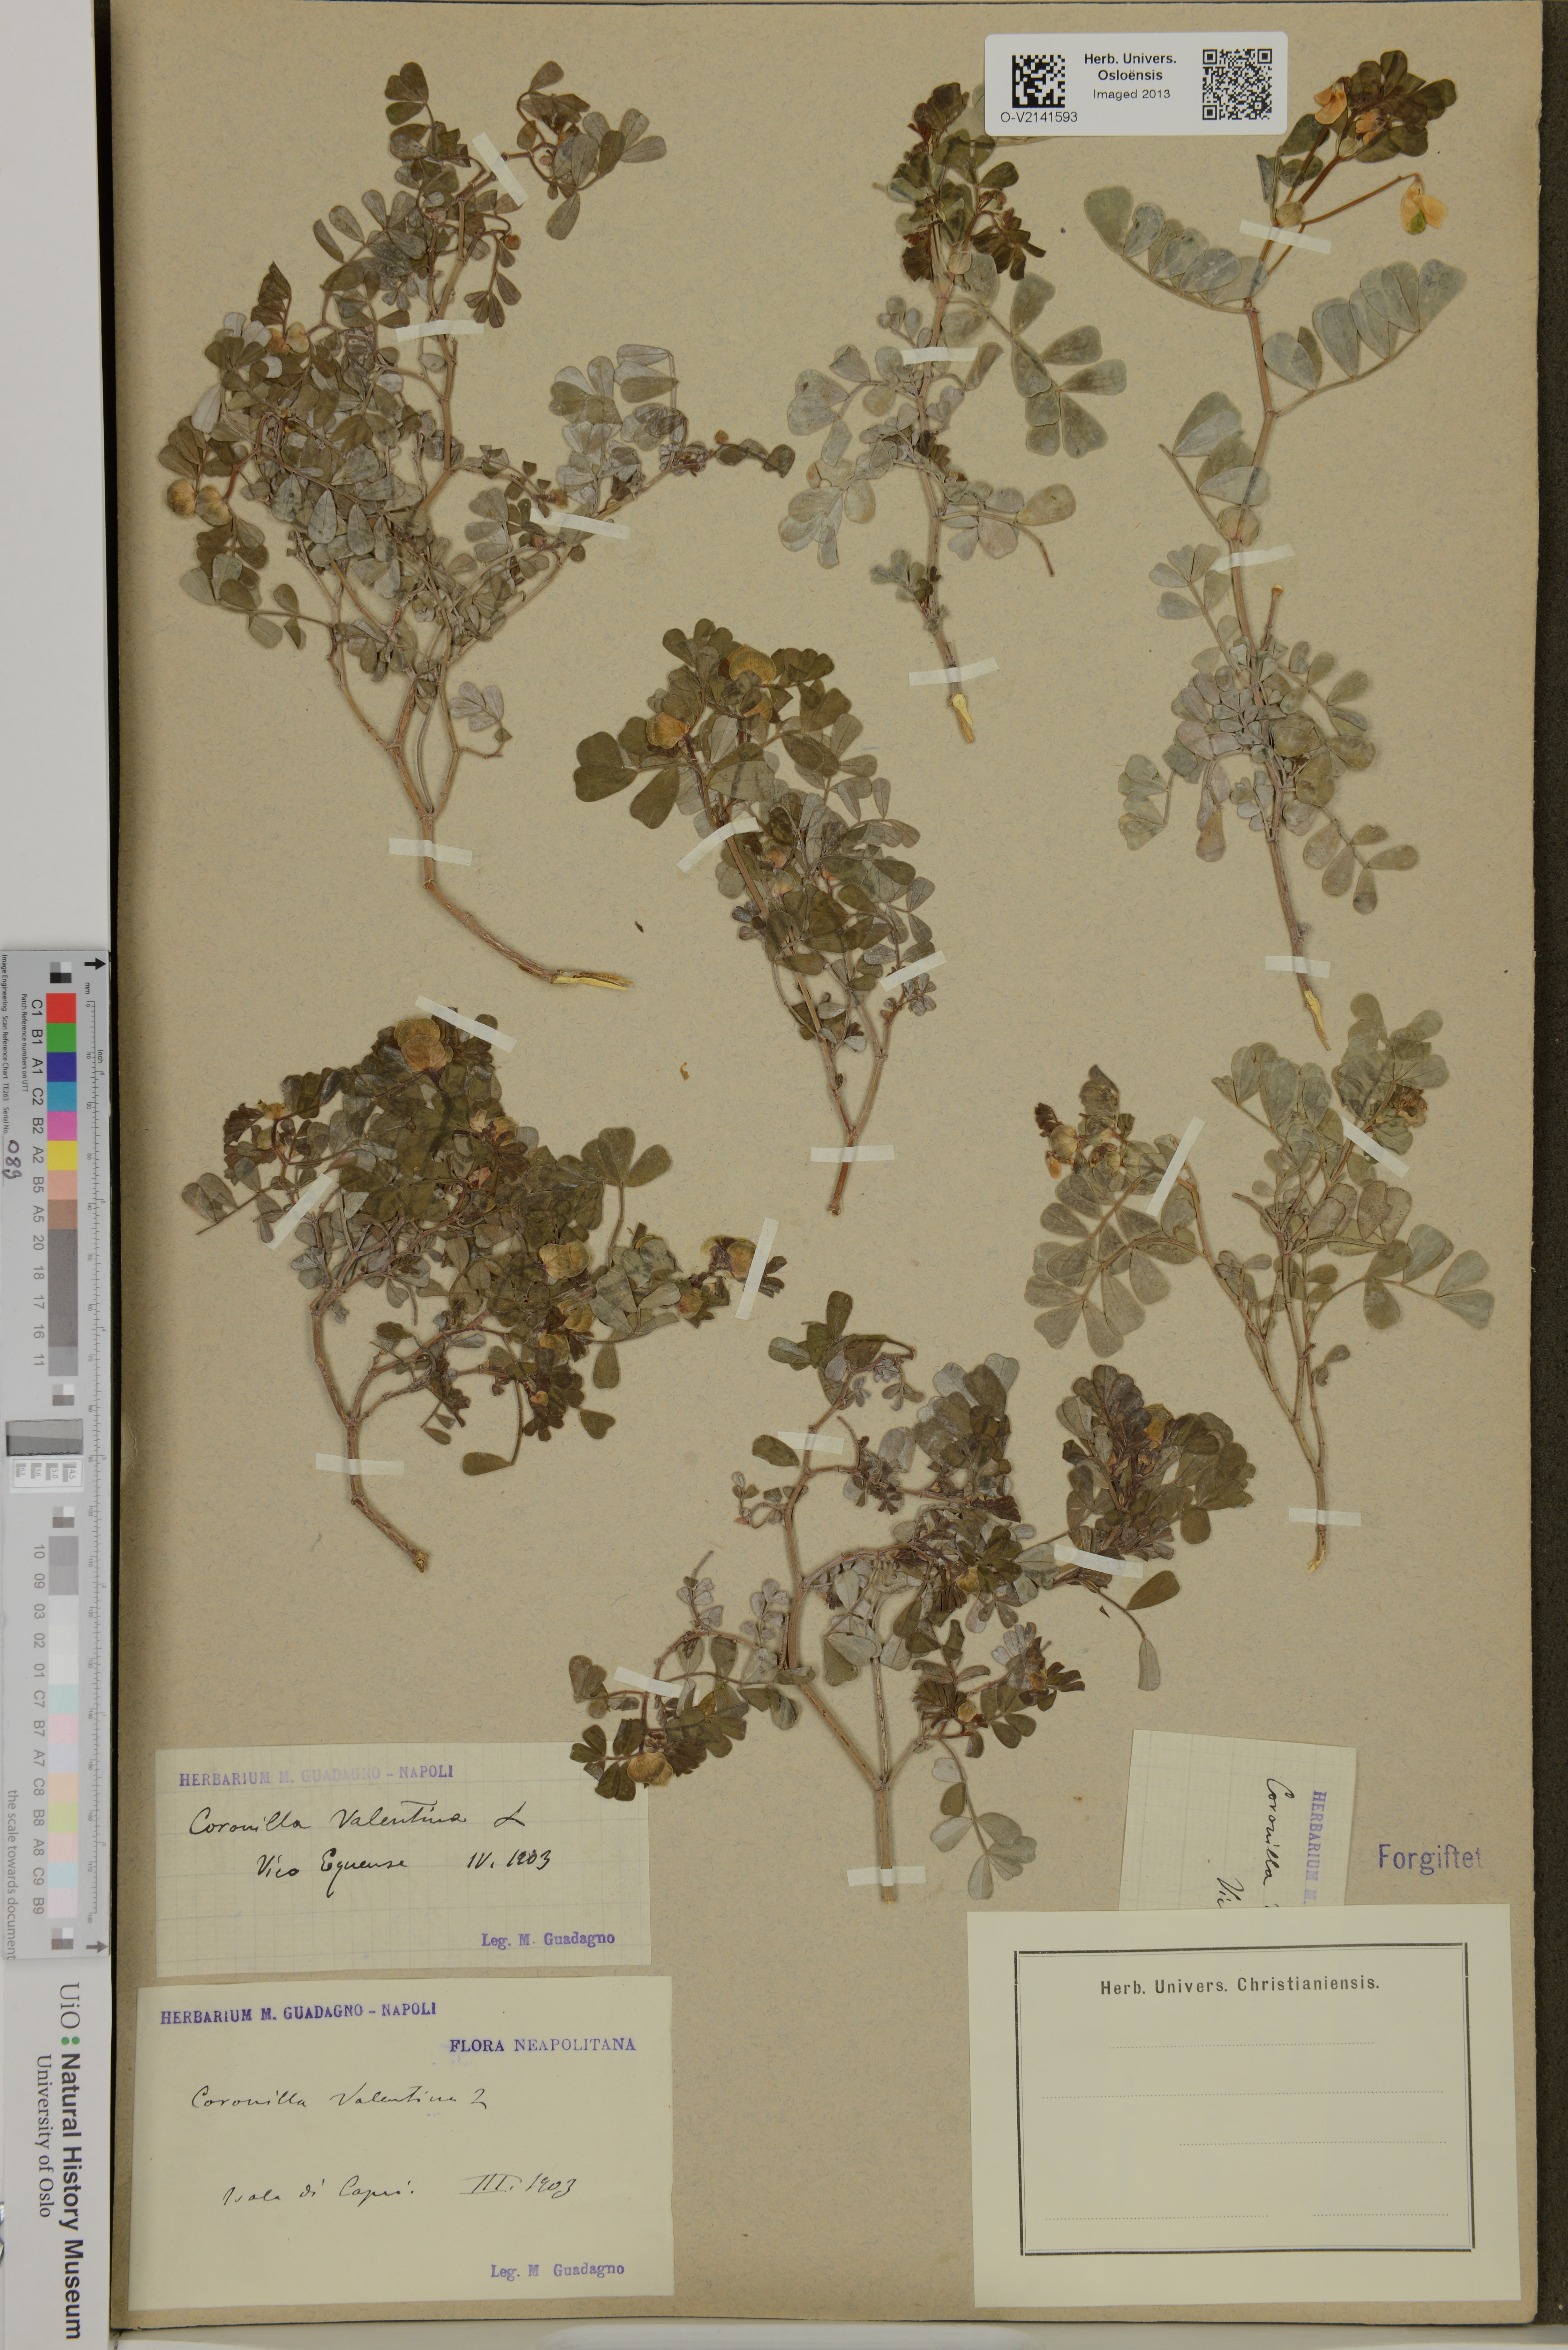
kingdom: Plantae
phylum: Tracheophyta
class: Magnoliopsida
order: Fabales
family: Fabaceae
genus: Coronilla
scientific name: Coronilla valentina
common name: Shrubby scorpion-vetch
